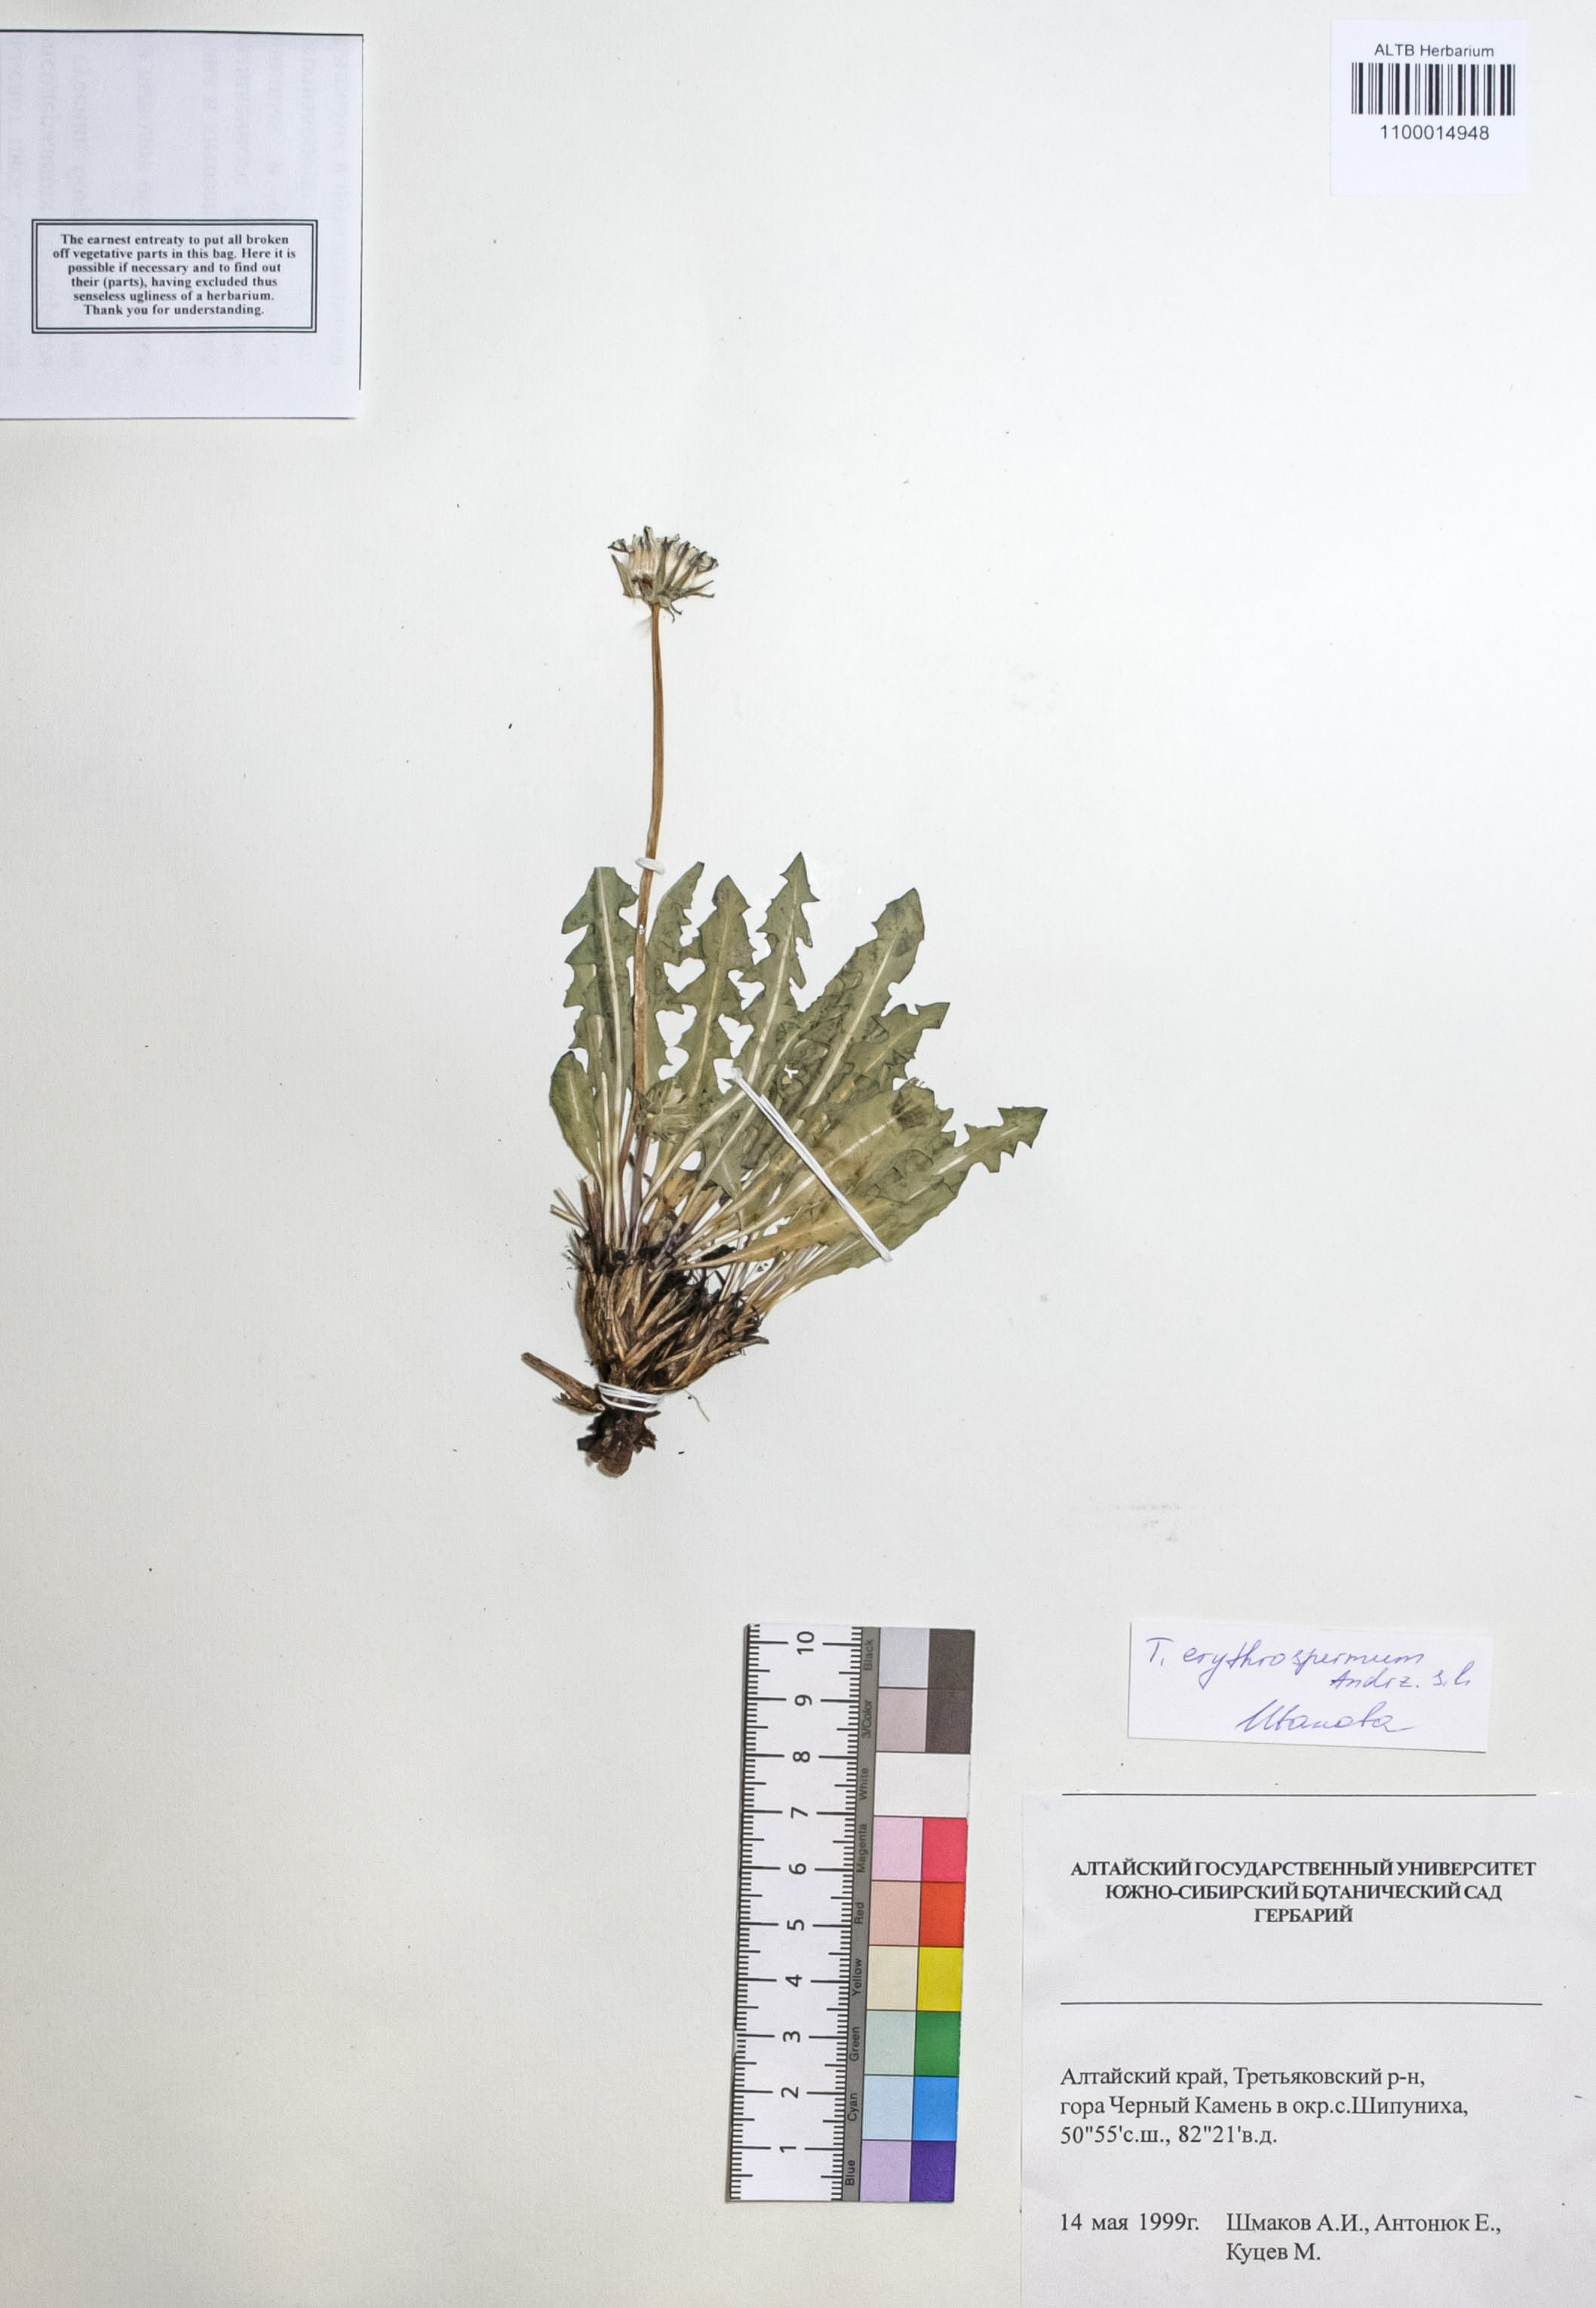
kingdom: Plantae
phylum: Tracheophyta
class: Magnoliopsida
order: Asterales
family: Asteraceae
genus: Taraxacum
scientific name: Taraxacum erythrospermum
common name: Rock dandelion
